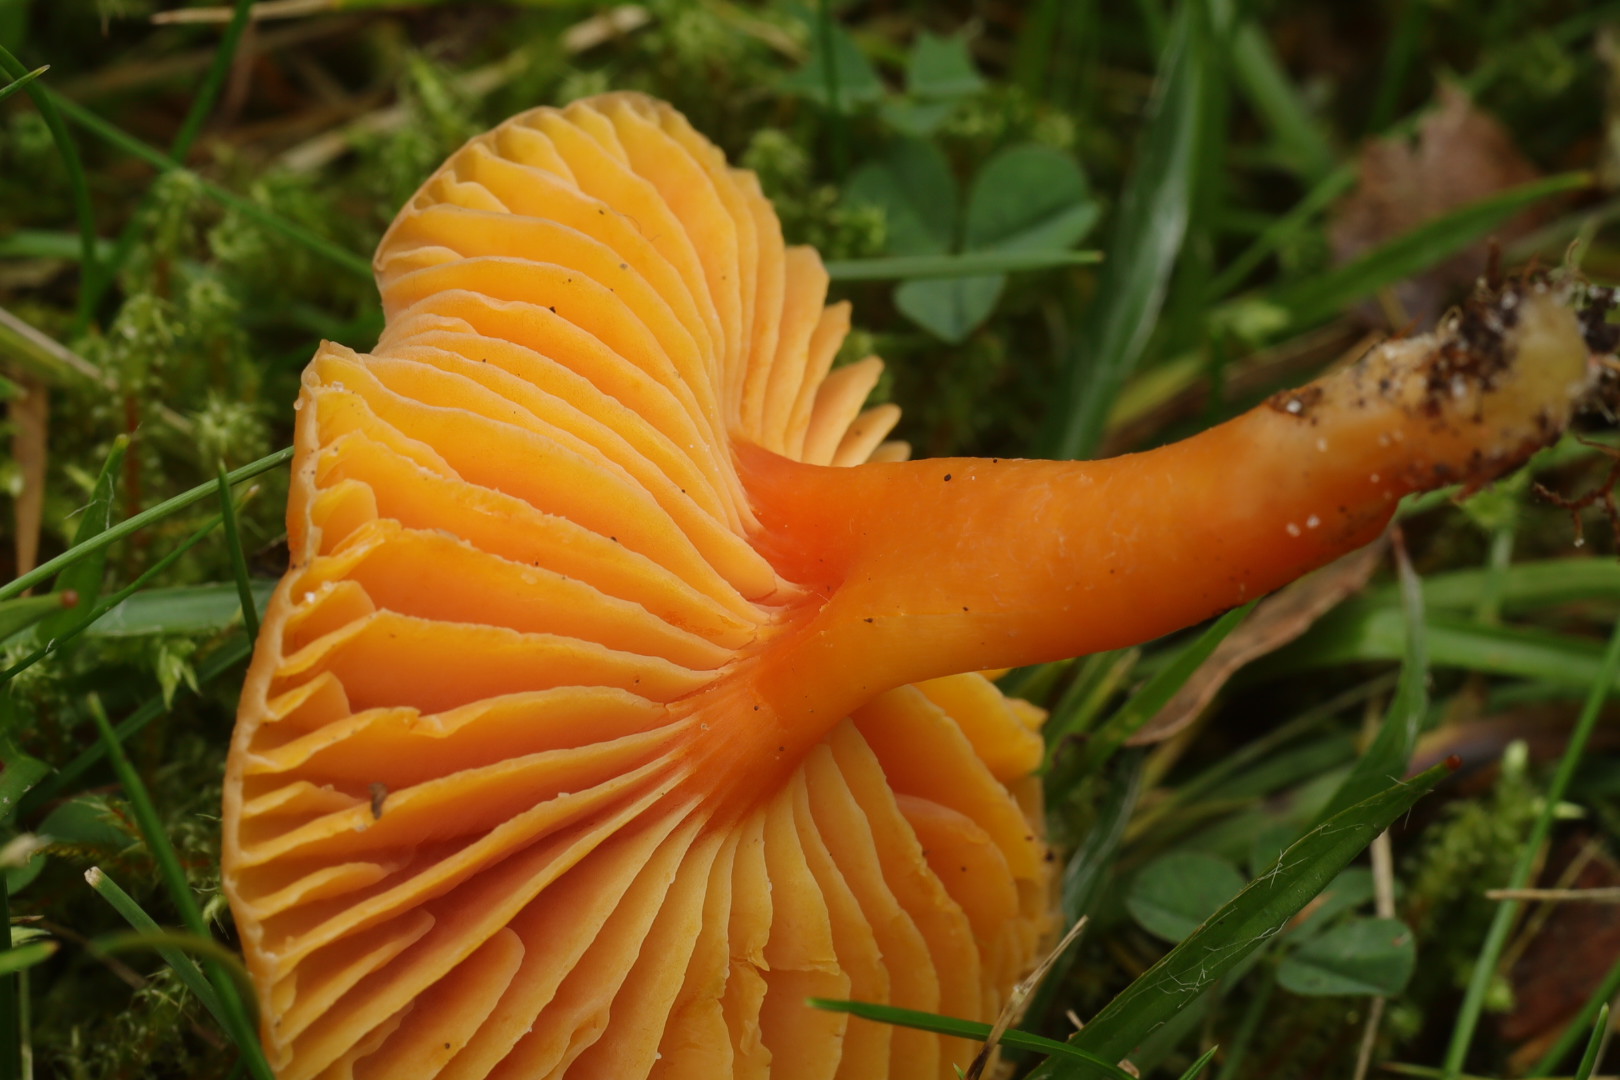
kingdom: Fungi
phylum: Basidiomycota
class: Agaricomycetes
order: Agaricales
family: Hygrophoraceae
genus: Hygrocybe
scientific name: Hygrocybe miniata
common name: mønje-vokshat
